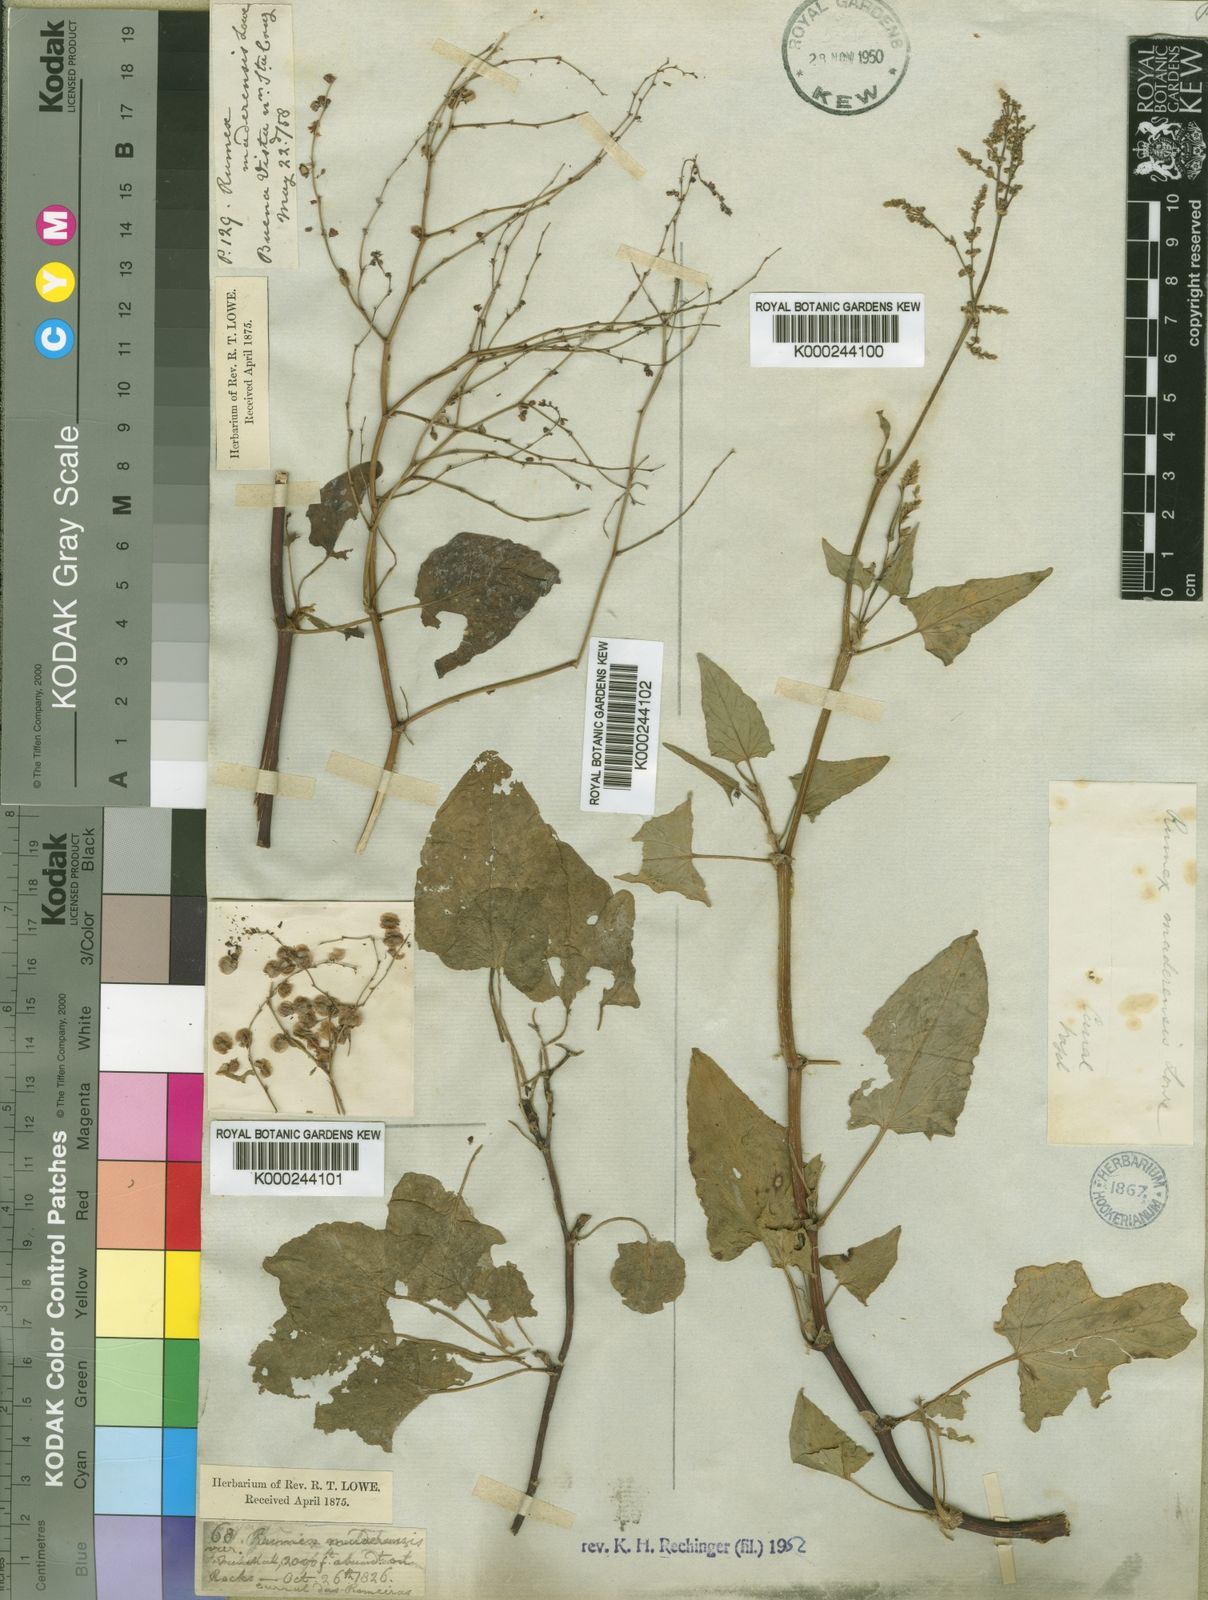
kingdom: Plantae
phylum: Tracheophyta
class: Magnoliopsida
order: Caryophyllales
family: Polygonaceae
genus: Rumex
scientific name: Rumex maderensis
